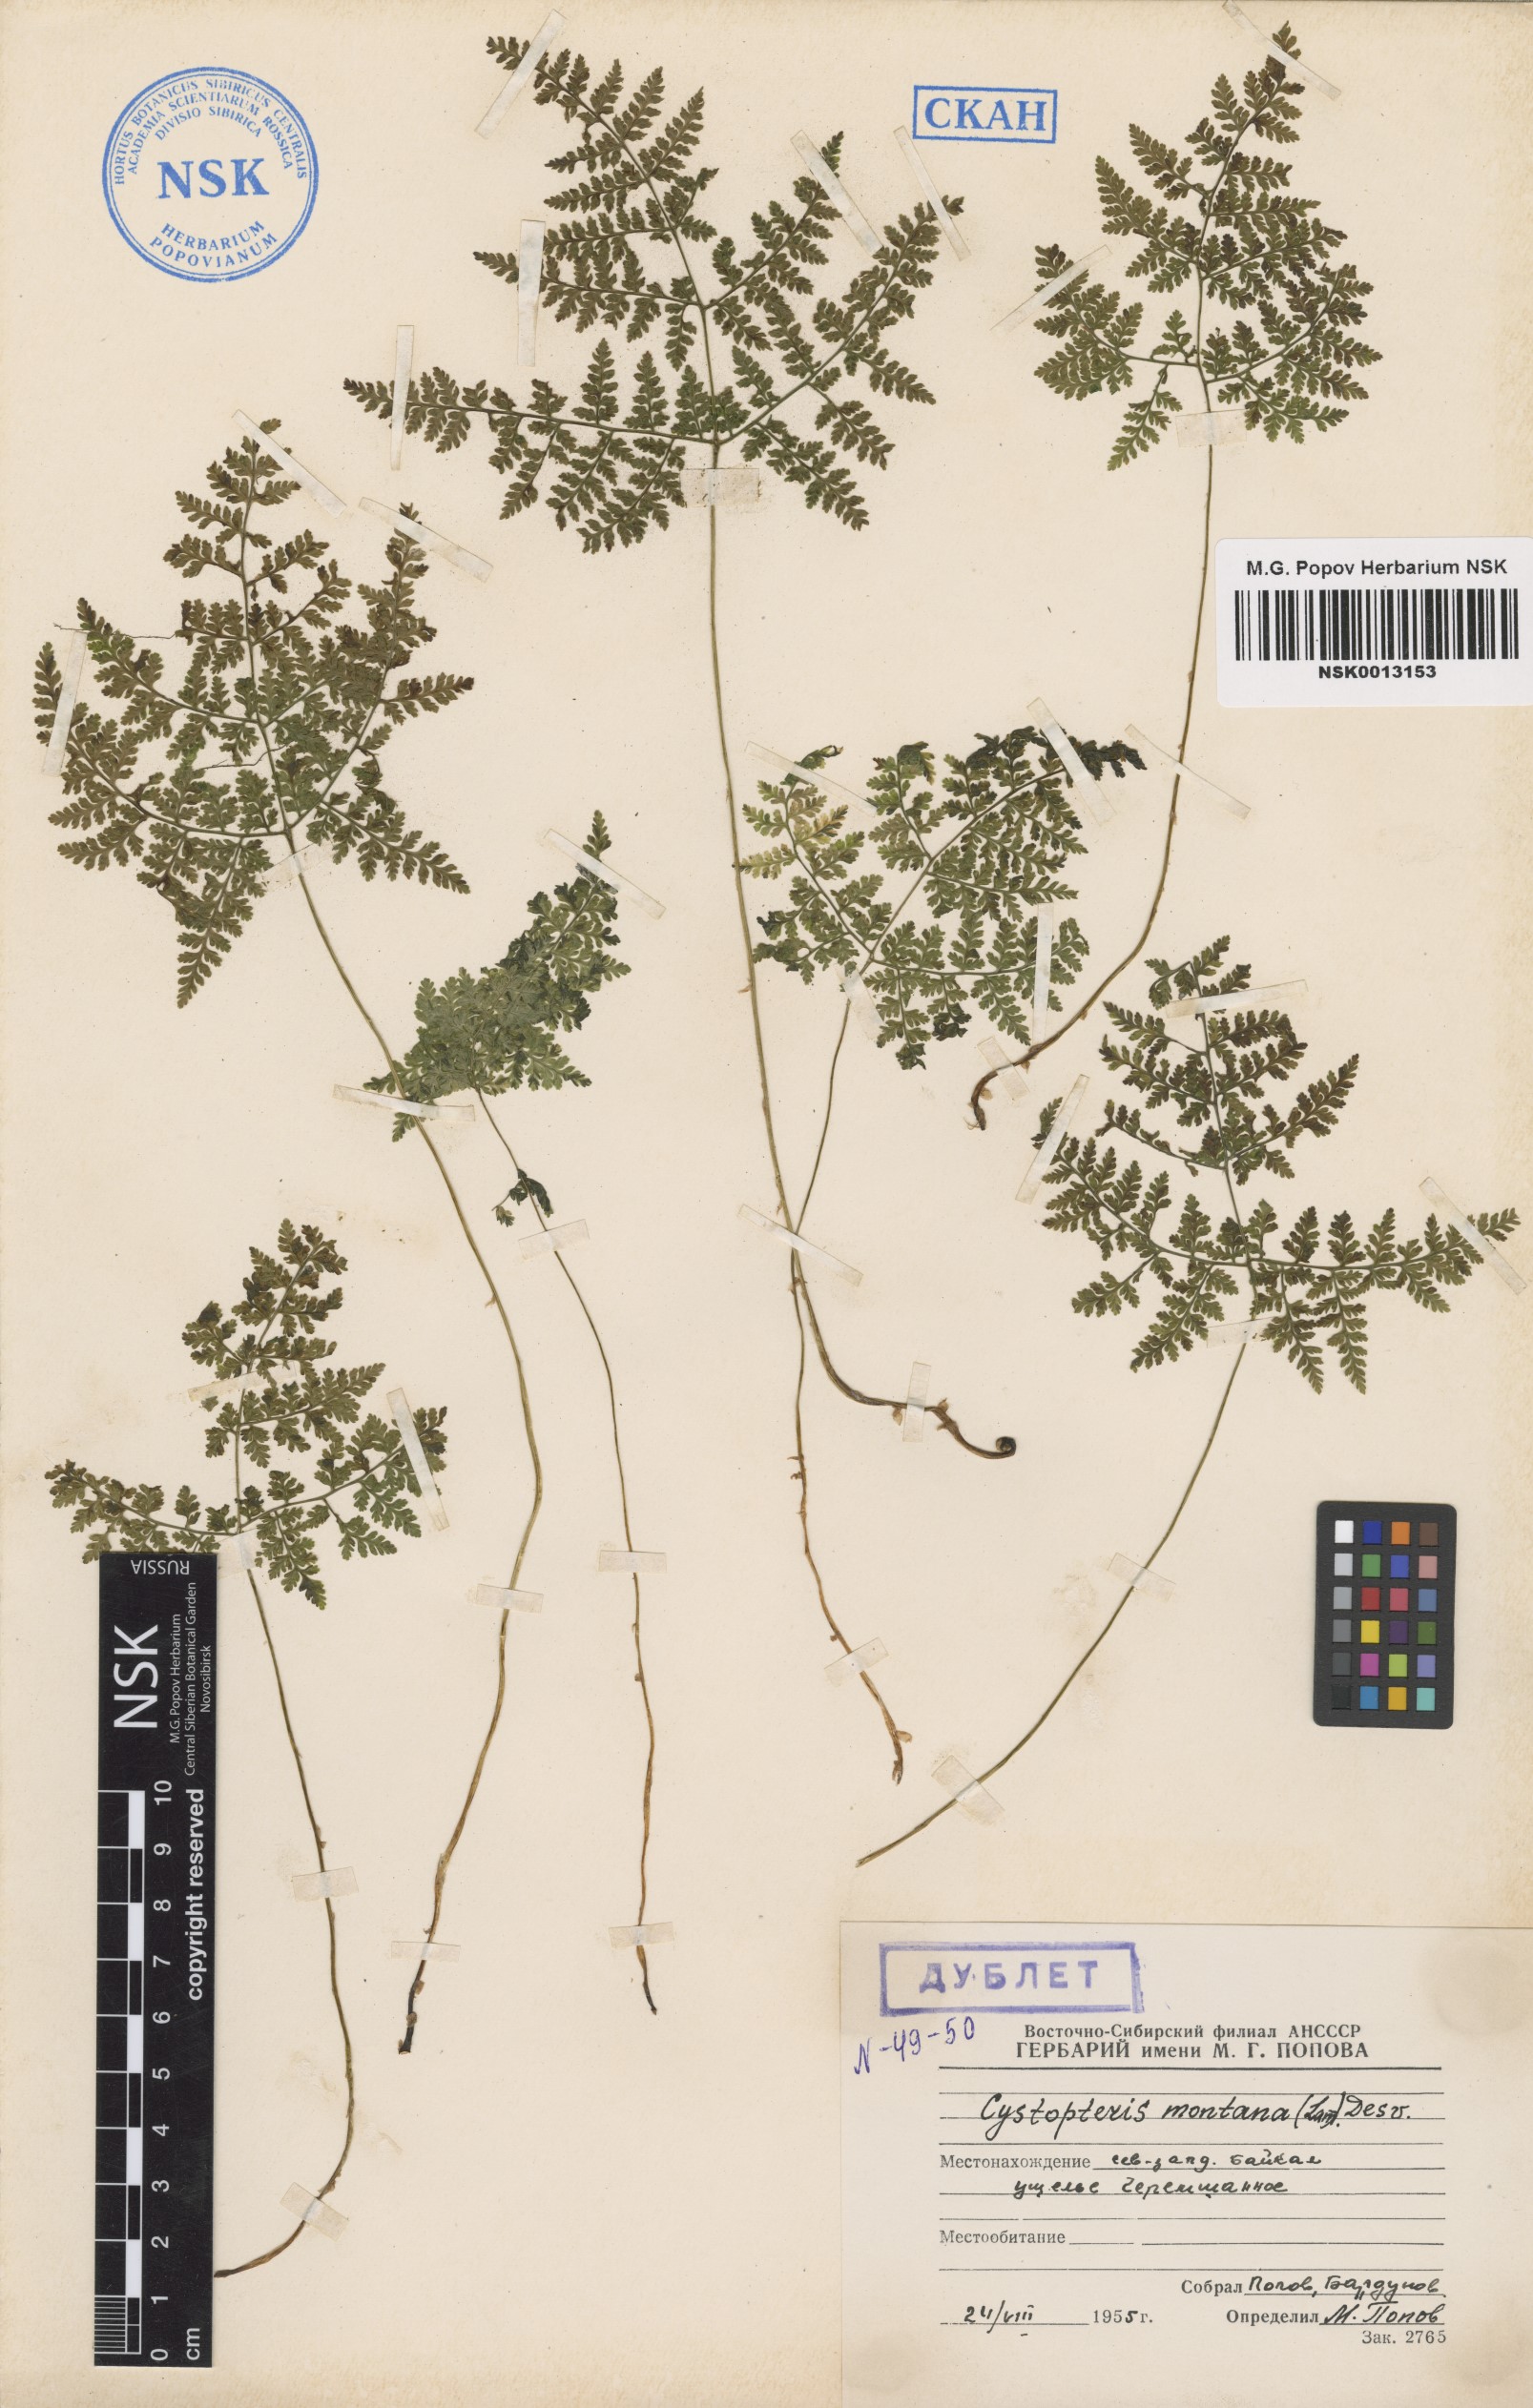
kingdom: Plantae
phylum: Tracheophyta
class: Polypodiopsida
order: Polypodiales
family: Cystopteridaceae
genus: Cystopteris
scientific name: Cystopteris montana
